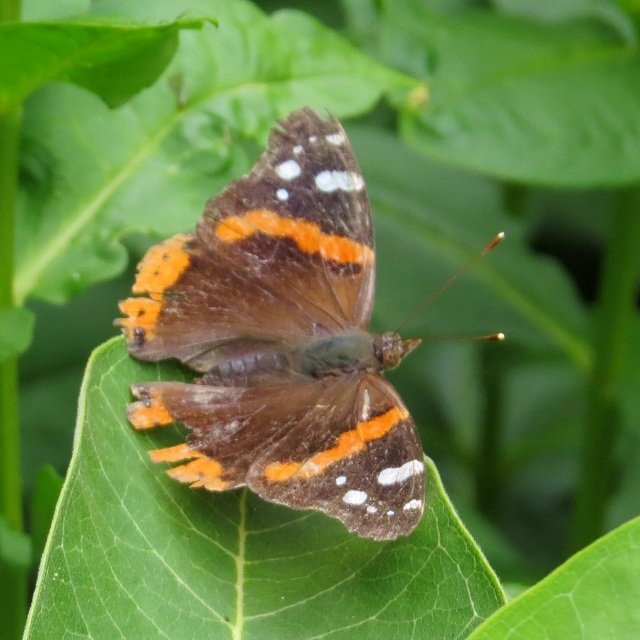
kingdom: Animalia
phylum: Arthropoda
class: Insecta
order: Lepidoptera
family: Nymphalidae
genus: Vanessa
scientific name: Vanessa atalanta
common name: Red Admiral
